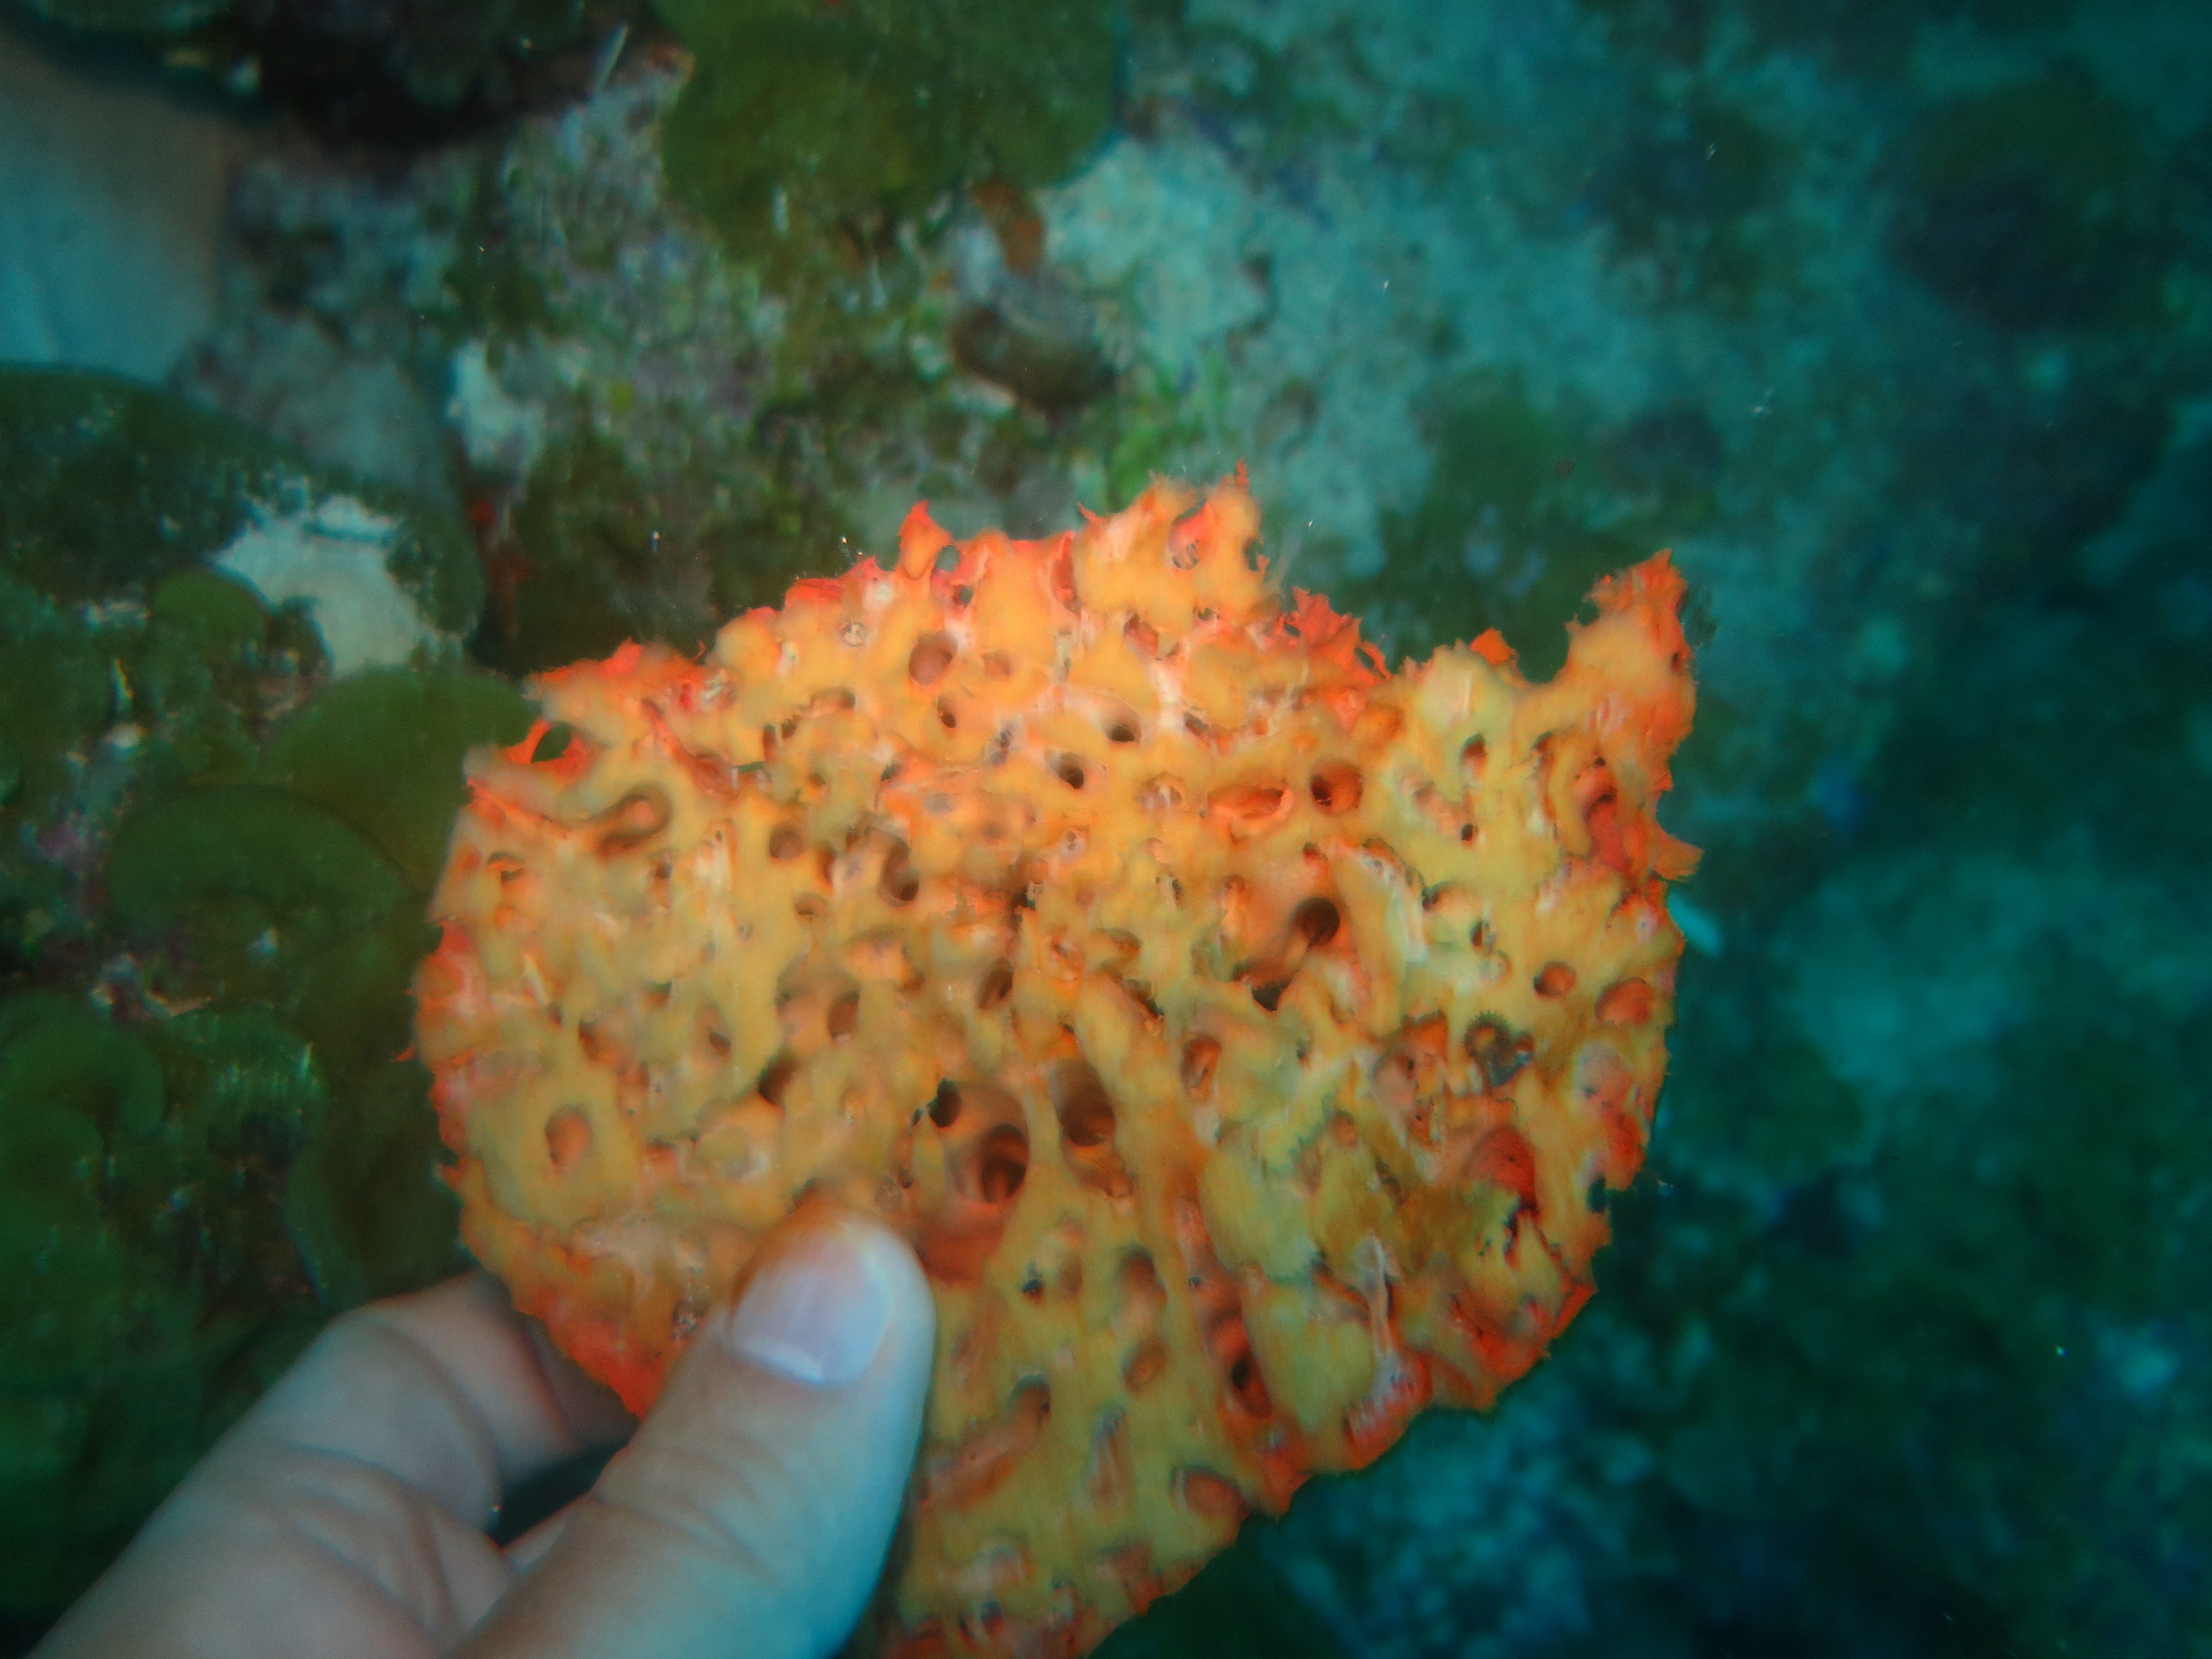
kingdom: Animalia
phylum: Porifera
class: Demospongiae
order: Agelasida
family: Agelasidae
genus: Agelas
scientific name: Agelas
